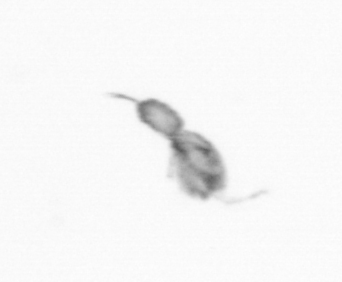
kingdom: Animalia
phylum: Arthropoda
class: Copepoda
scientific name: Copepoda
